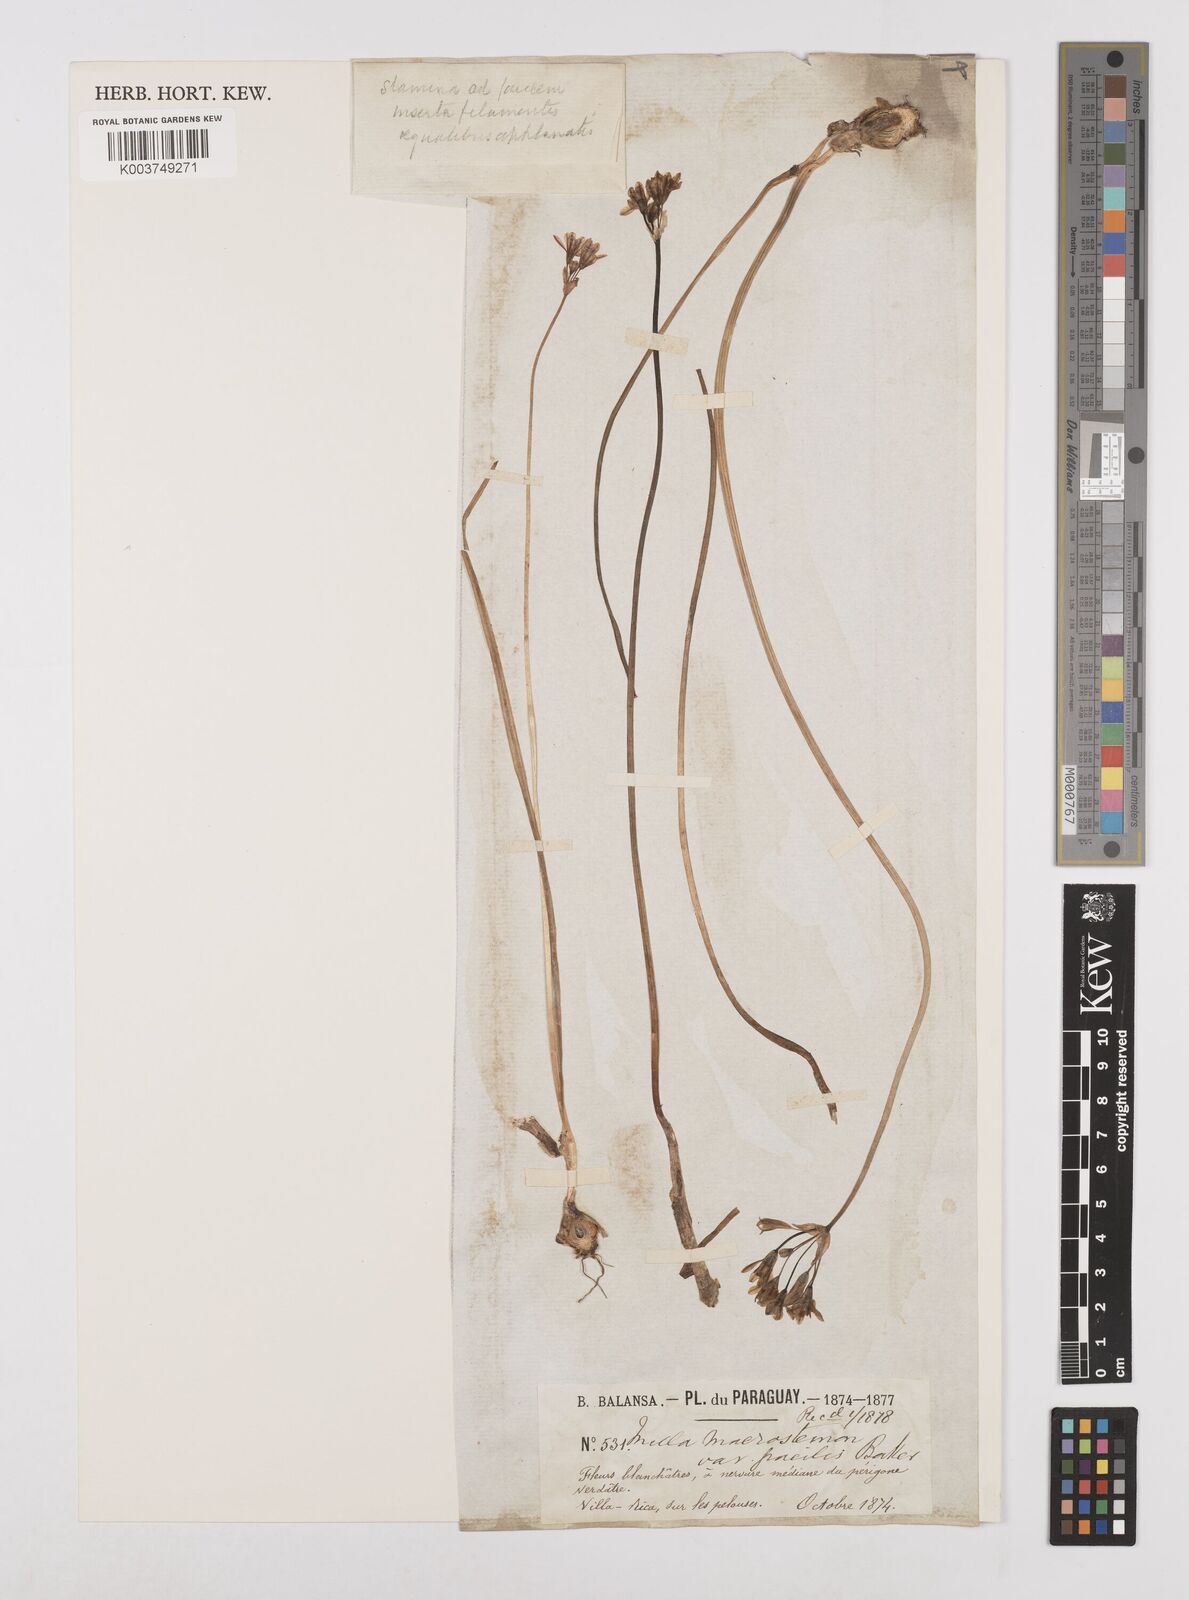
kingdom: Plantae
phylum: Tracheophyta
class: Liliopsida
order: Asparagales
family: Amaryllidaceae
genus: Nothoscordum
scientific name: Nothoscordum gracile
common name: Slender false garlic
